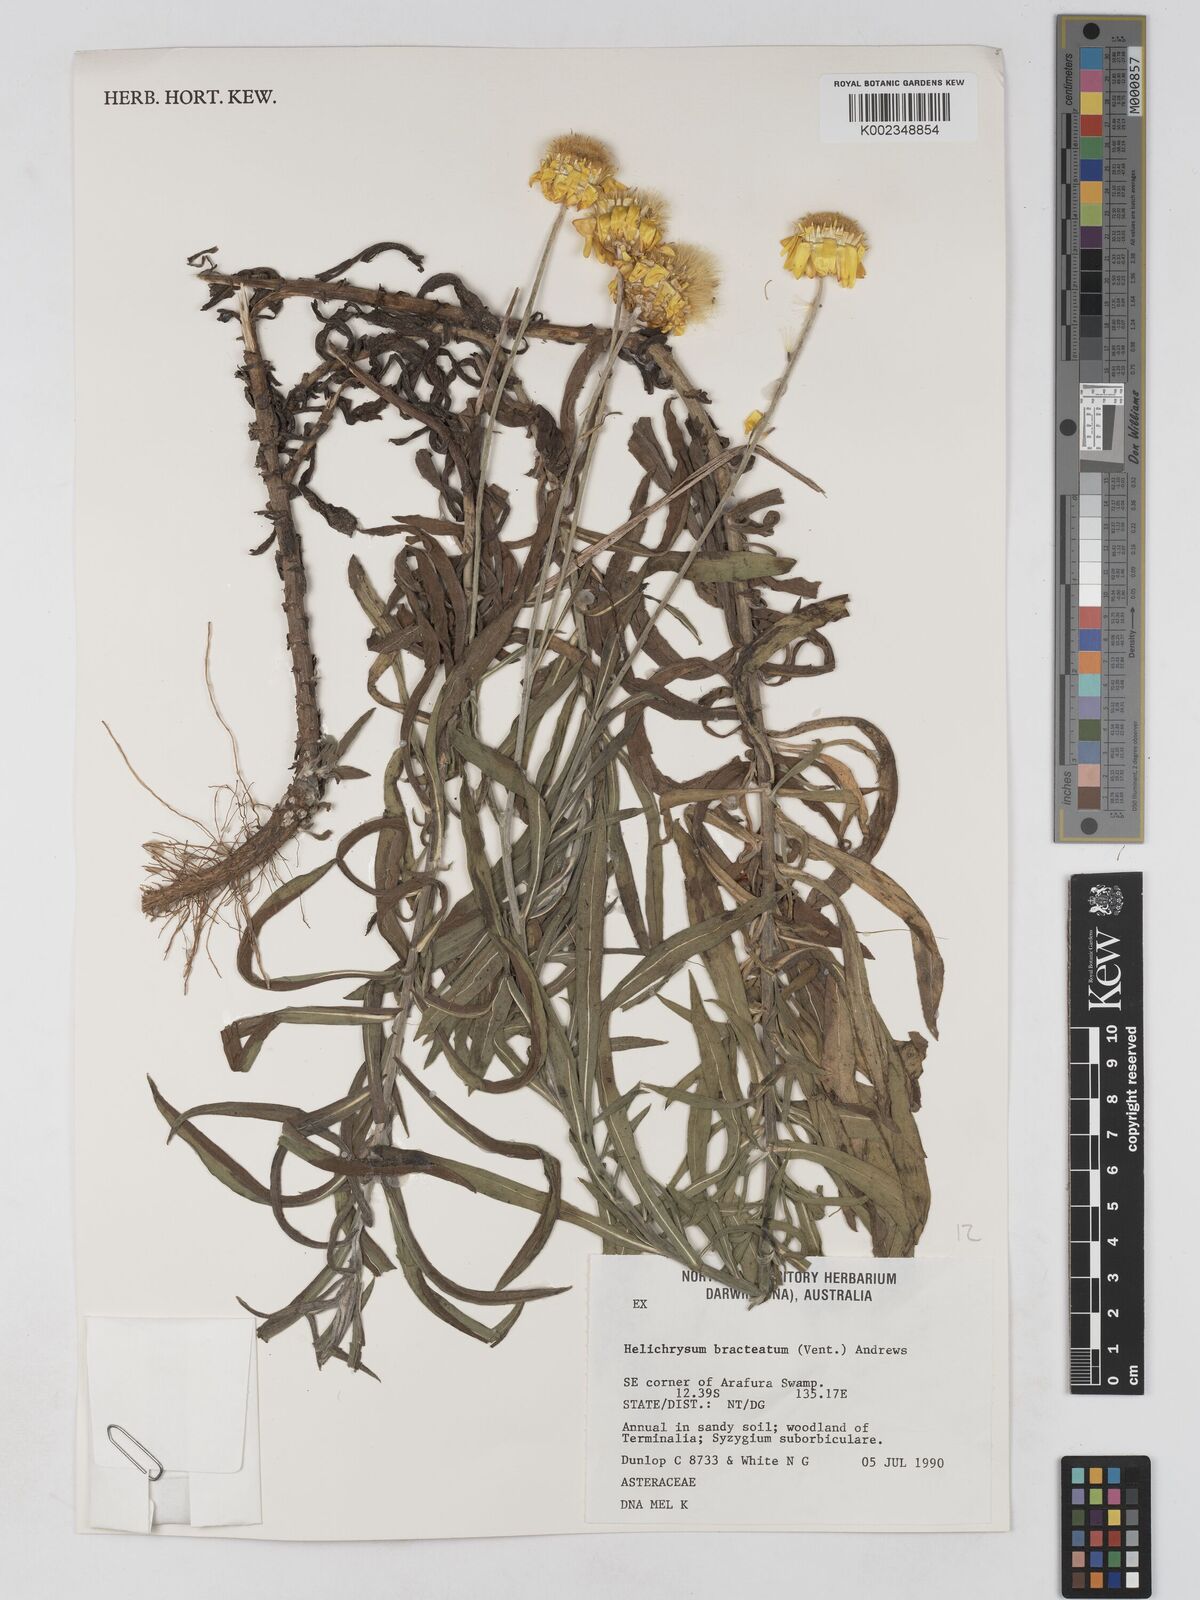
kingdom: Plantae
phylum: Tracheophyta
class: Magnoliopsida
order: Asterales
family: Asteraceae
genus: Xerochrysum
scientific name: Xerochrysum bracteatum
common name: Bracted strawflower
